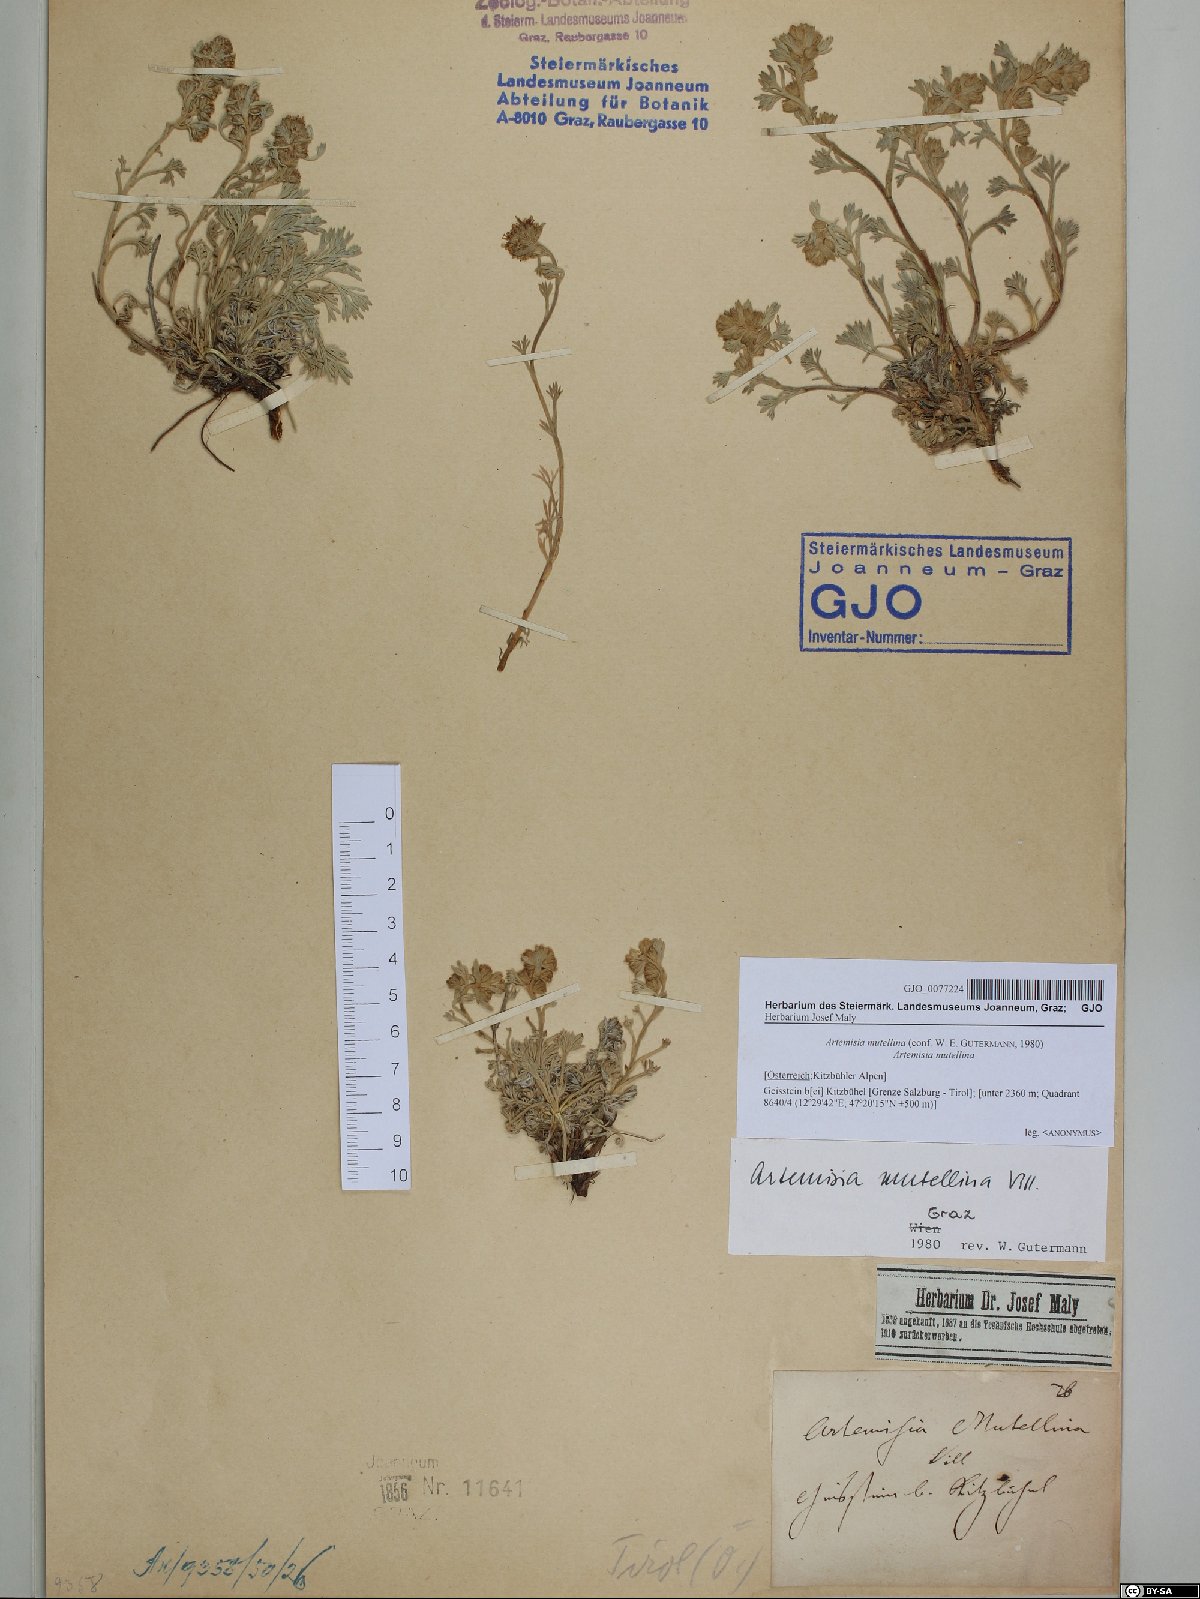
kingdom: Plantae
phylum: Tracheophyta
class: Magnoliopsida
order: Asterales
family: Asteraceae
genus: Artemisia
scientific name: Artemisia mutellina
